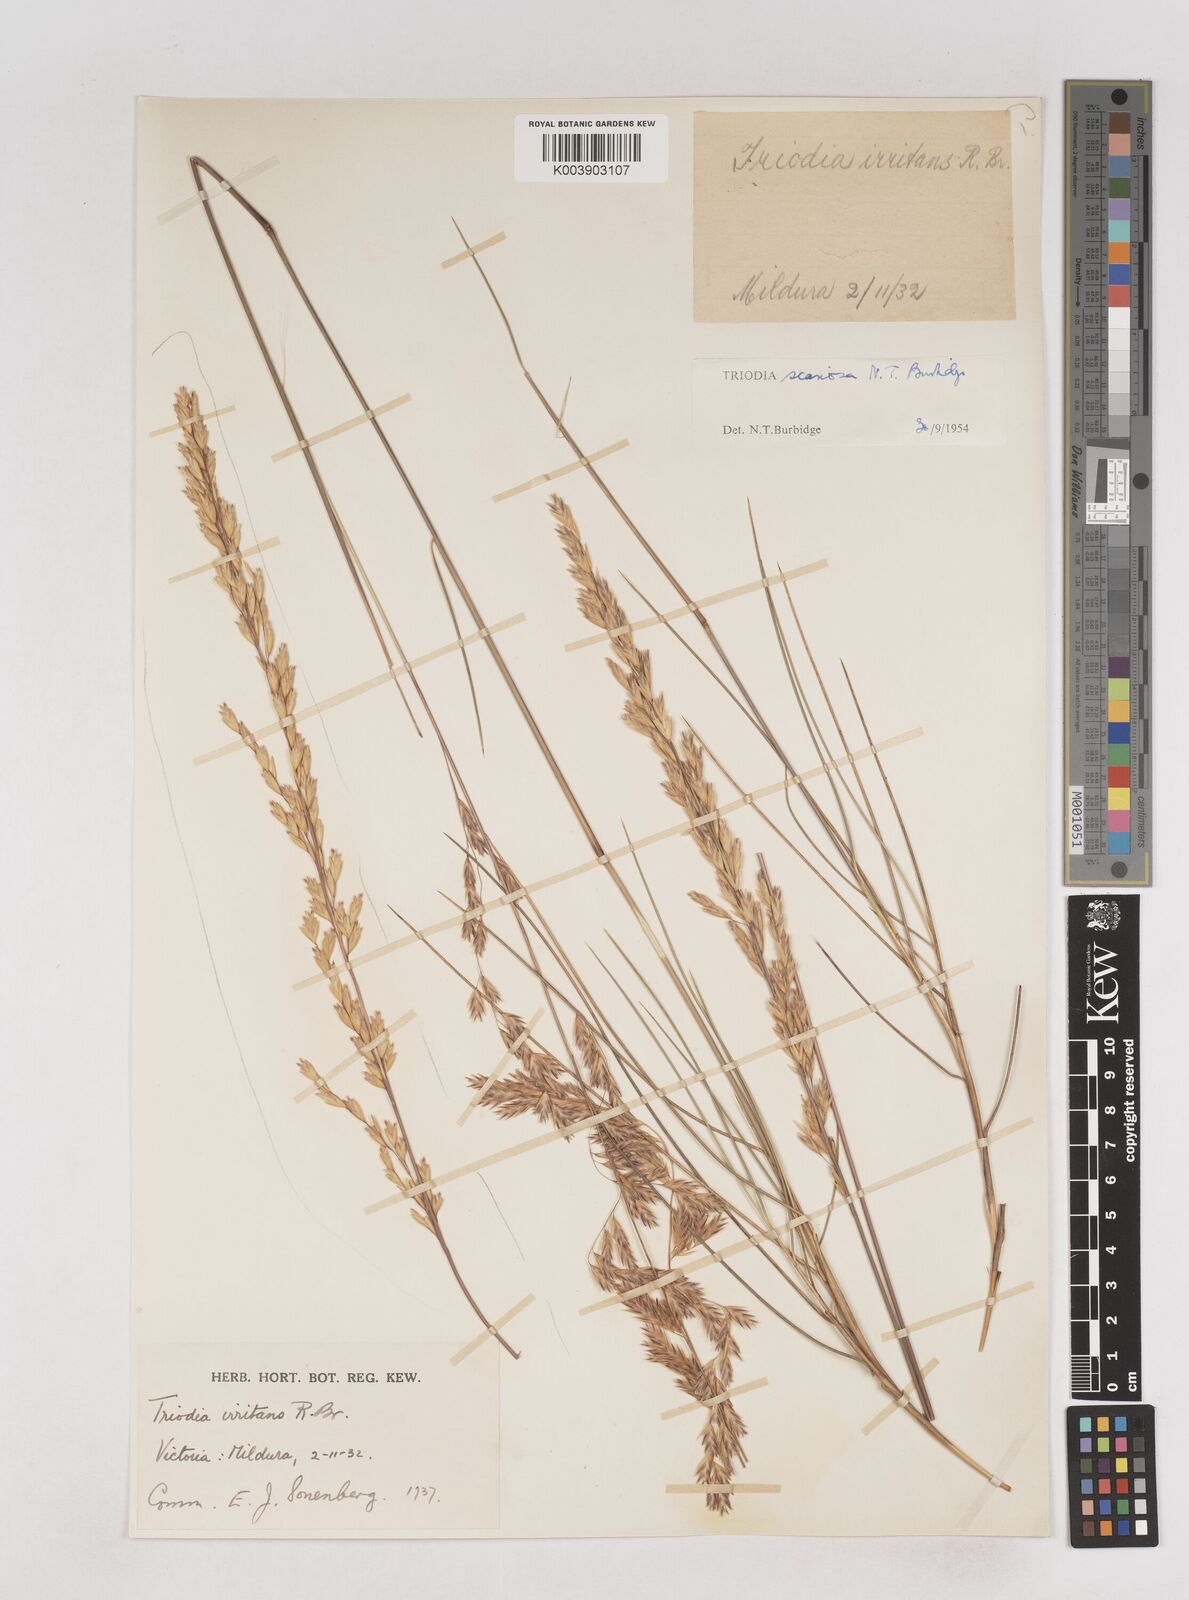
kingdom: Plantae
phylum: Tracheophyta
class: Liliopsida
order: Poales
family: Poaceae
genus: Triodia
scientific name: Triodia scariosa
